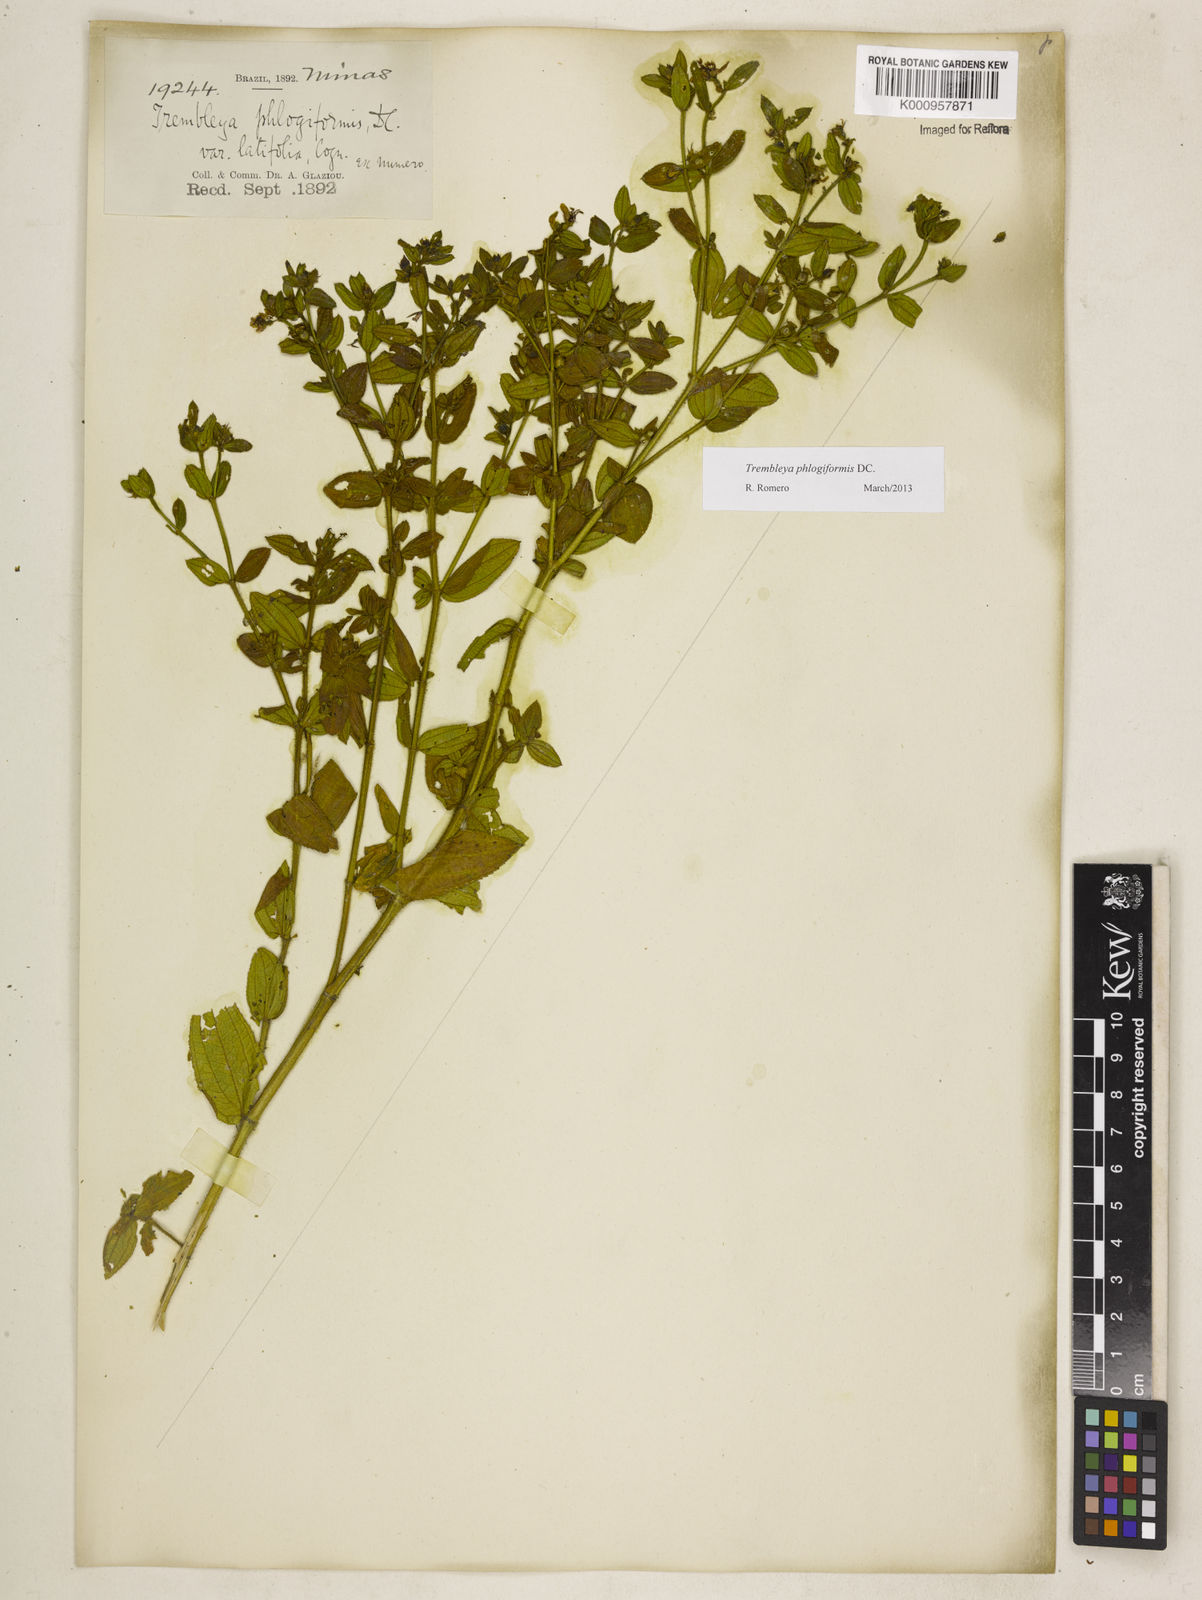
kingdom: Plantae
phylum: Tracheophyta
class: Magnoliopsida
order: Myrtales
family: Melastomataceae
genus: Microlicia
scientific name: Microlicia phlogiformis
